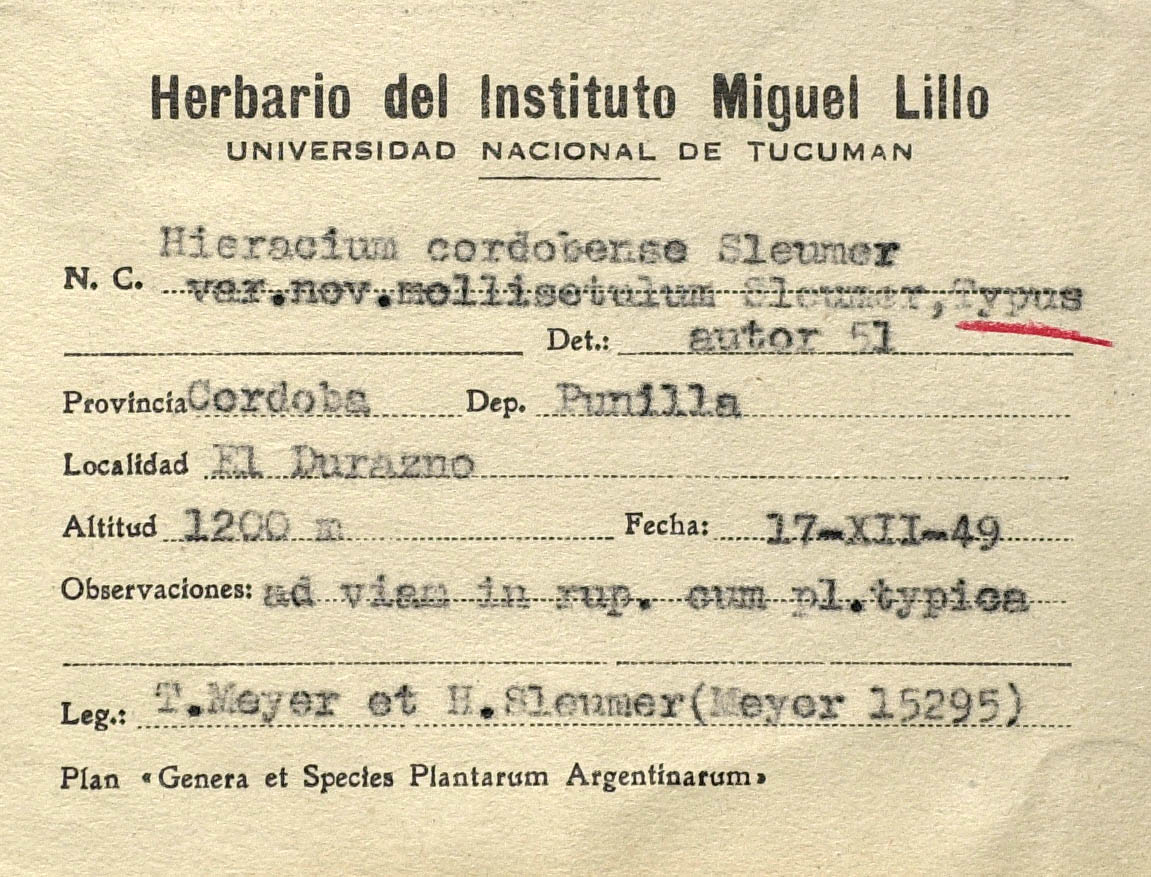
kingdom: Plantae
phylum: Tracheophyta
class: Magnoliopsida
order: Asterales
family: Asteraceae
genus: Hieracium
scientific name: Hieracium cordobense
